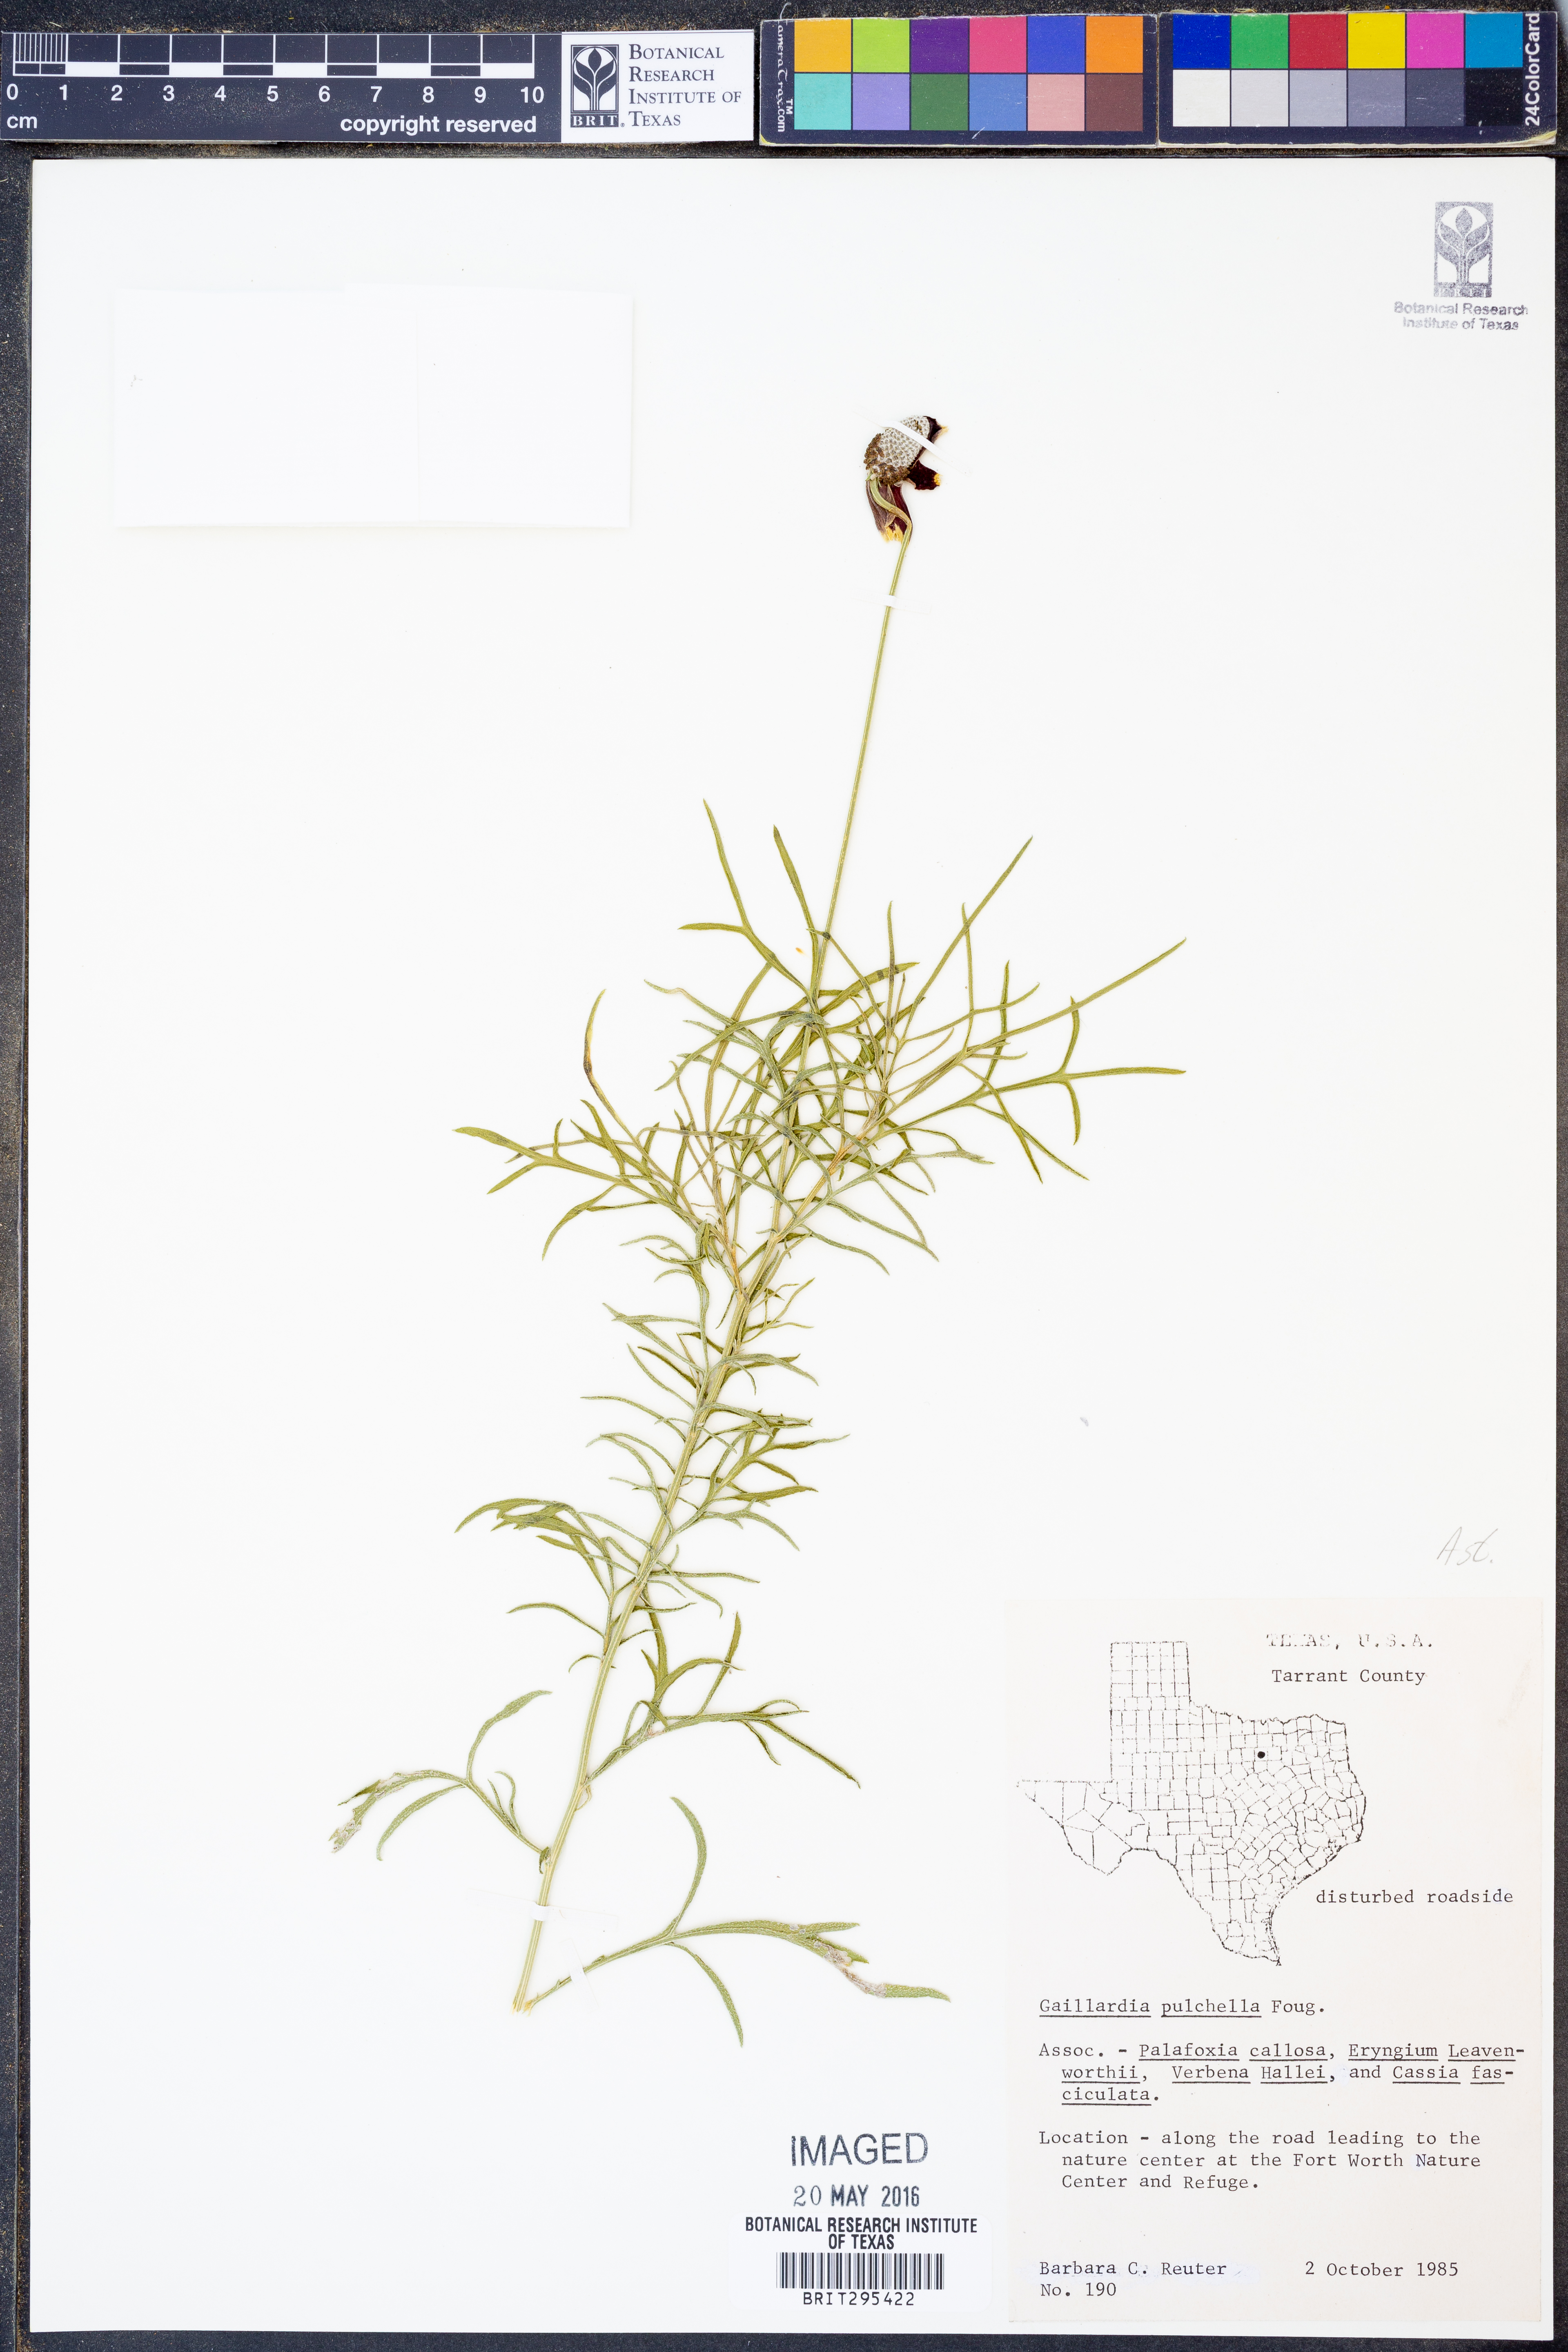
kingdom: Plantae
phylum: Tracheophyta
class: Magnoliopsida
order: Asterales
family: Asteraceae
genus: Gaillardia
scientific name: Gaillardia pulchella
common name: Firewheel
